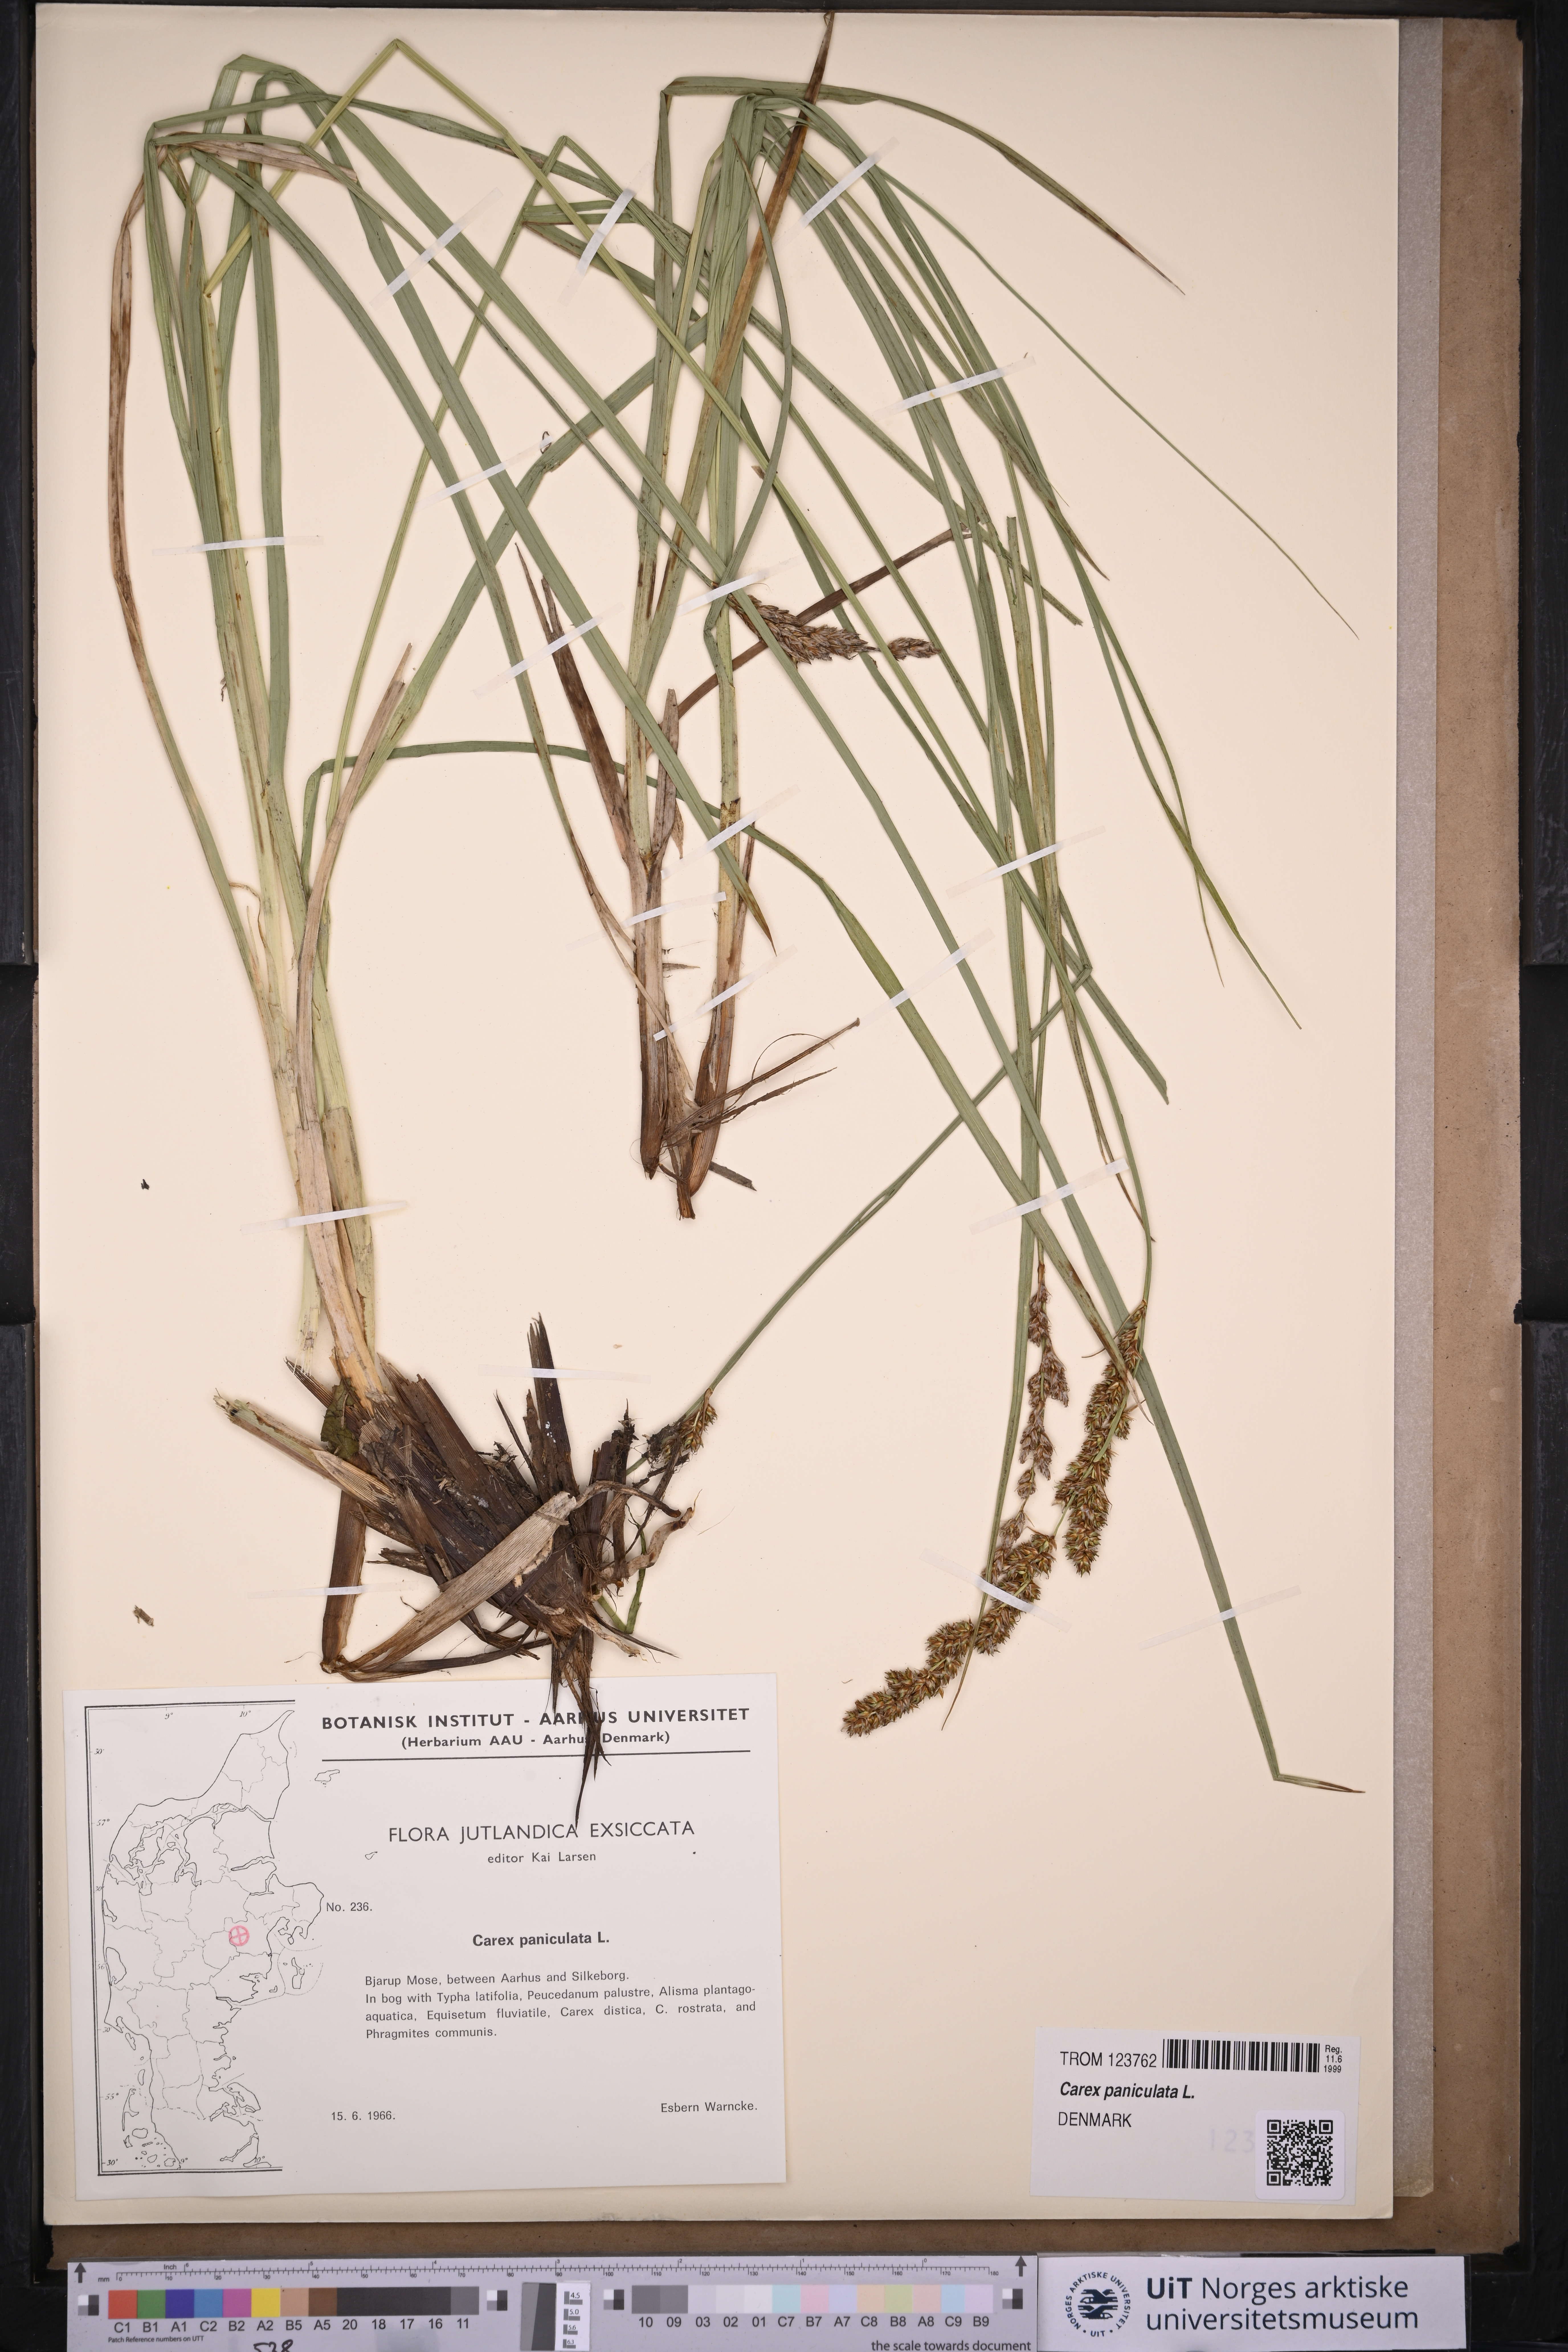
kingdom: Plantae
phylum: Tracheophyta
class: Liliopsida
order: Poales
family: Cyperaceae
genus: Carex
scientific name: Carex paniculata
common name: Greater tussock-sedge
